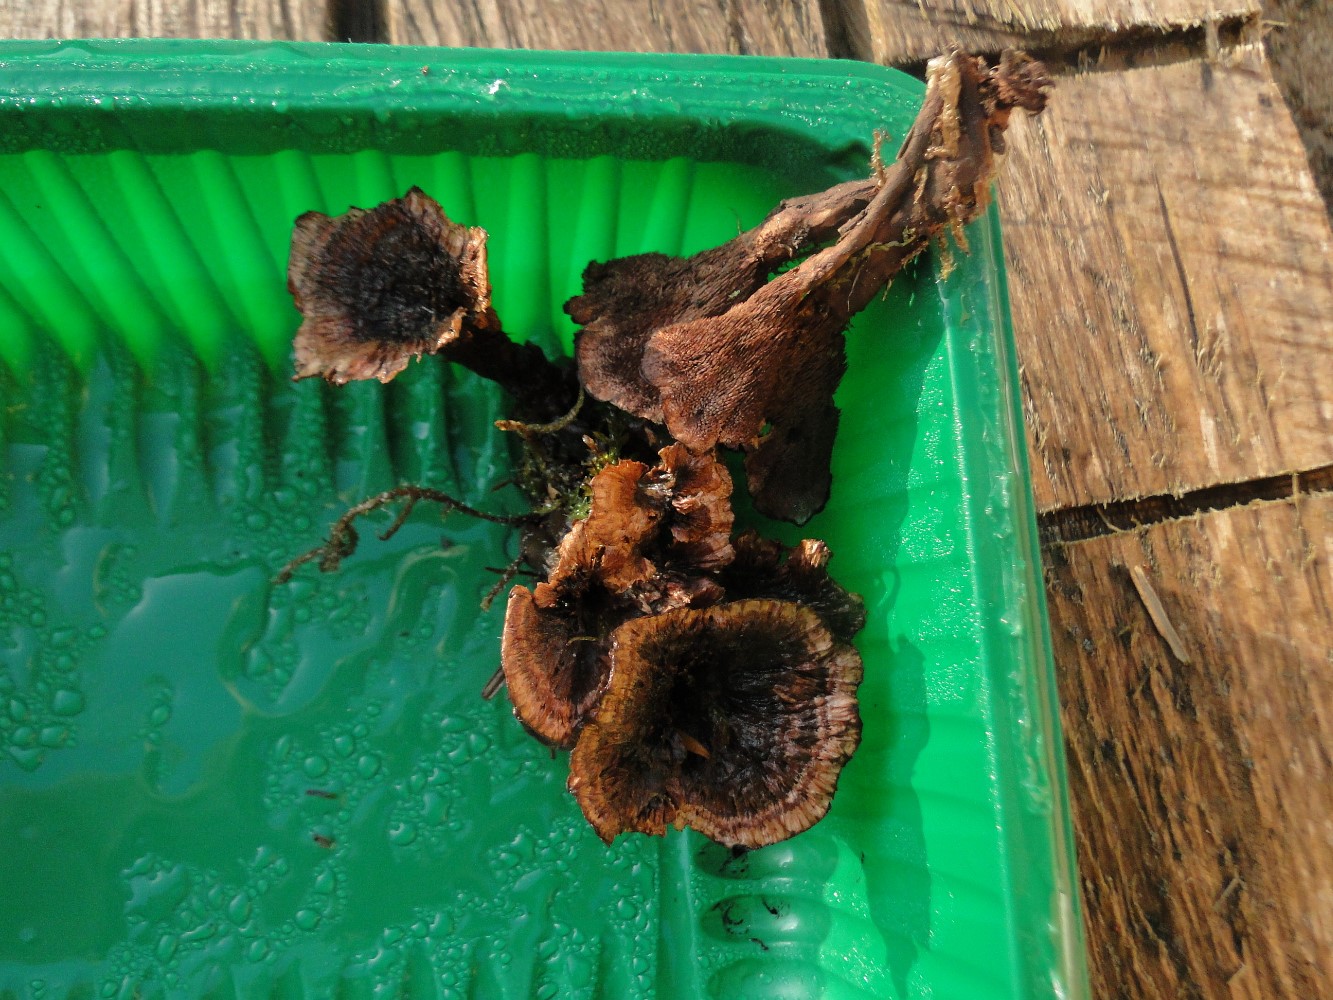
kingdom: Fungi
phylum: Basidiomycota
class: Agaricomycetes
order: Thelephorales
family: Bankeraceae
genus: Hydnellum
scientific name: Hydnellum concrescens
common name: bæltet korkpigsvamp
